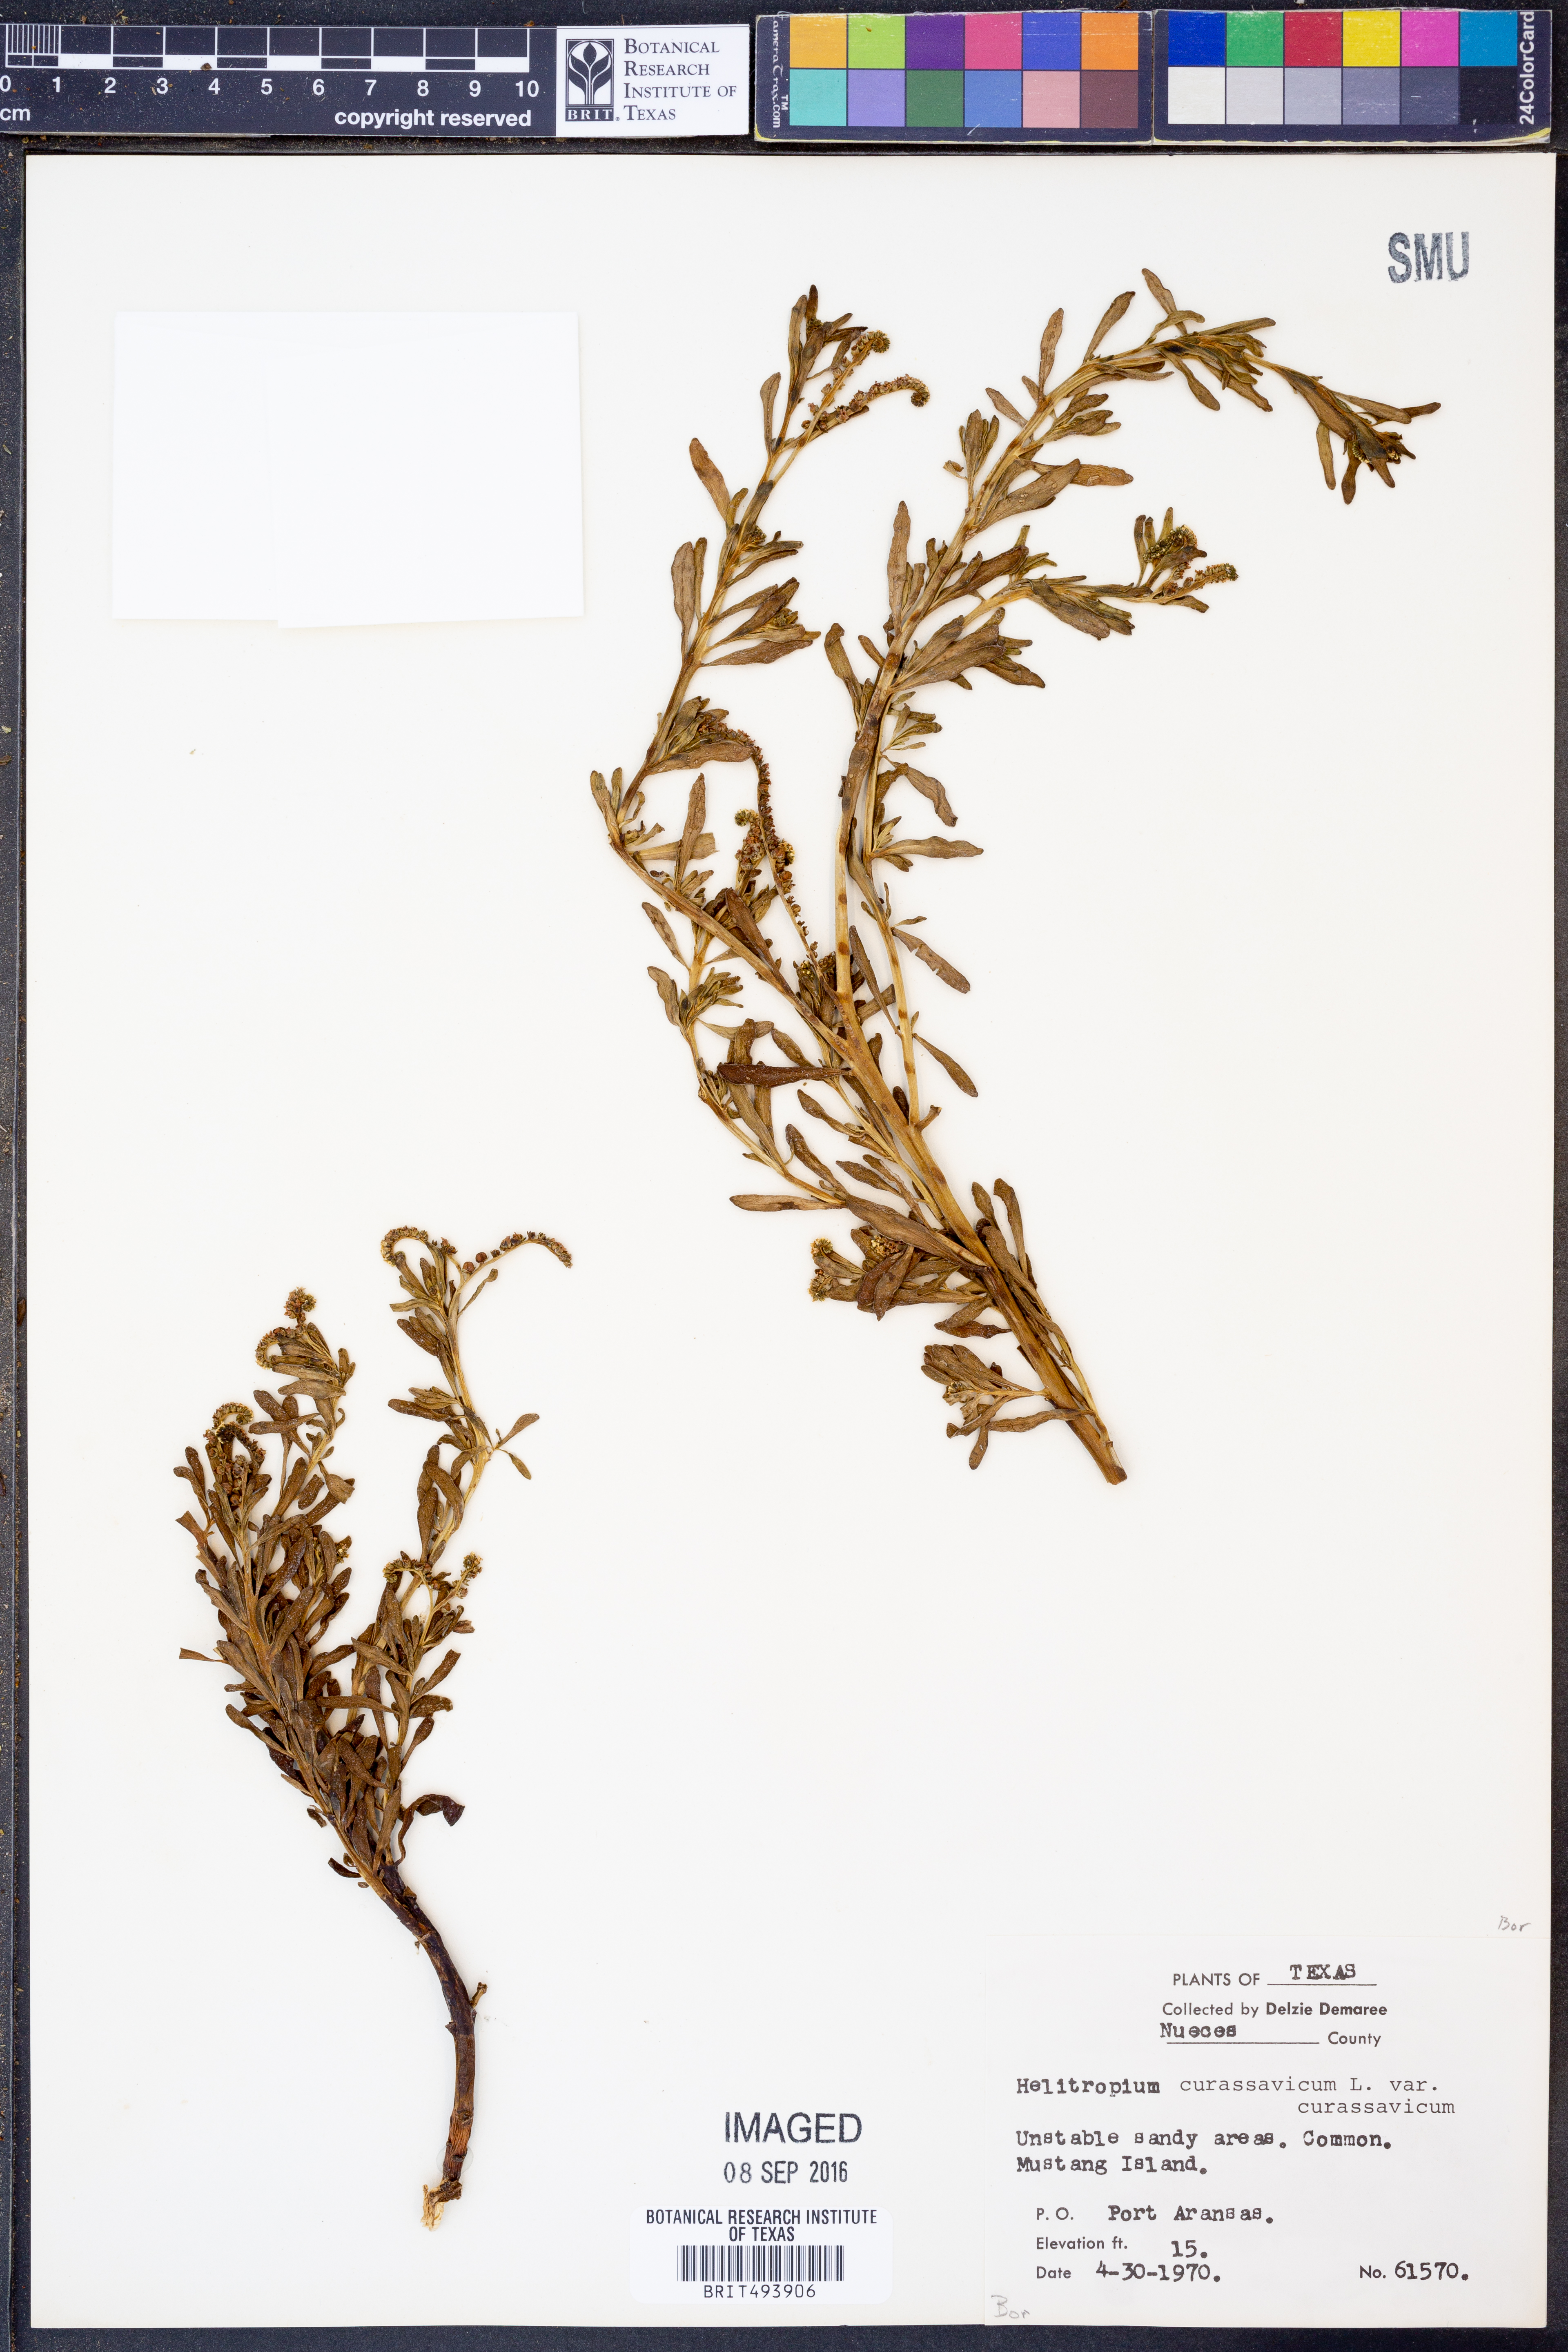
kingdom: Plantae
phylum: Tracheophyta
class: Magnoliopsida
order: Boraginales
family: Heliotropiaceae
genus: Heliotropium
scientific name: Heliotropium curassavicum
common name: Seaside heliotrope
